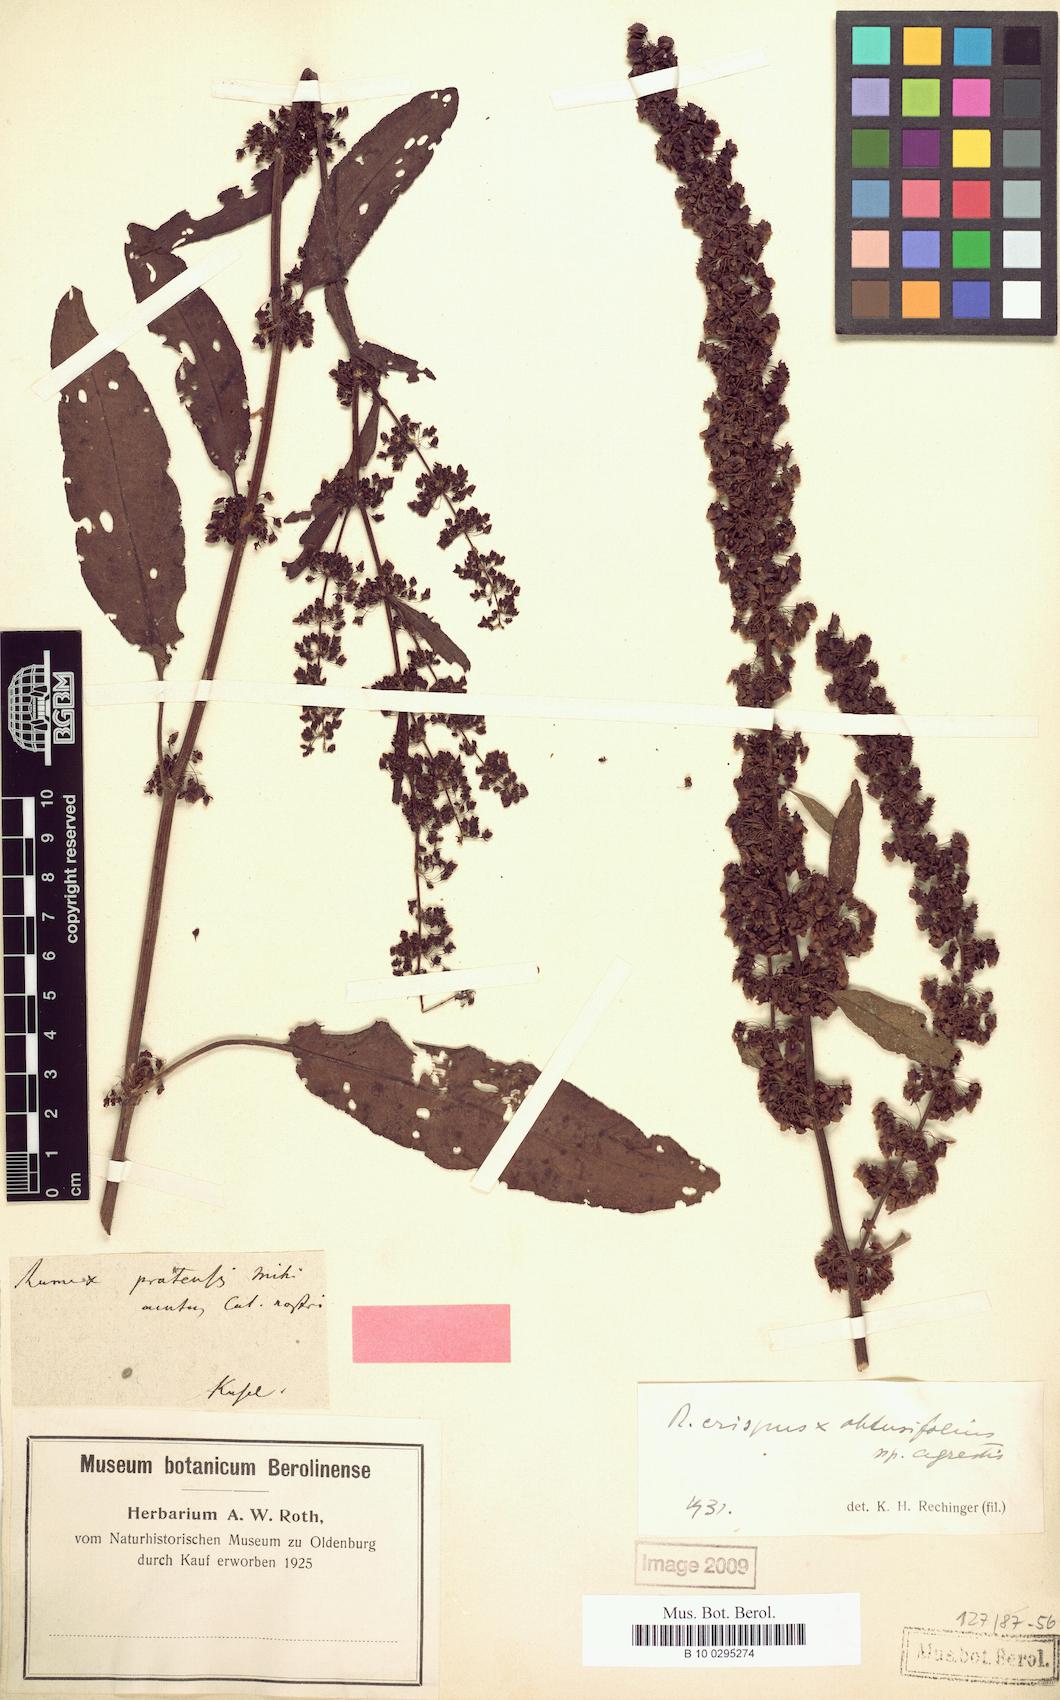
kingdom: Plantae
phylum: Tracheophyta
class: Magnoliopsida
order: Caryophyllales
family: Polygonaceae
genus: Rumex
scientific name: Rumex pratensis
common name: Knotweed
